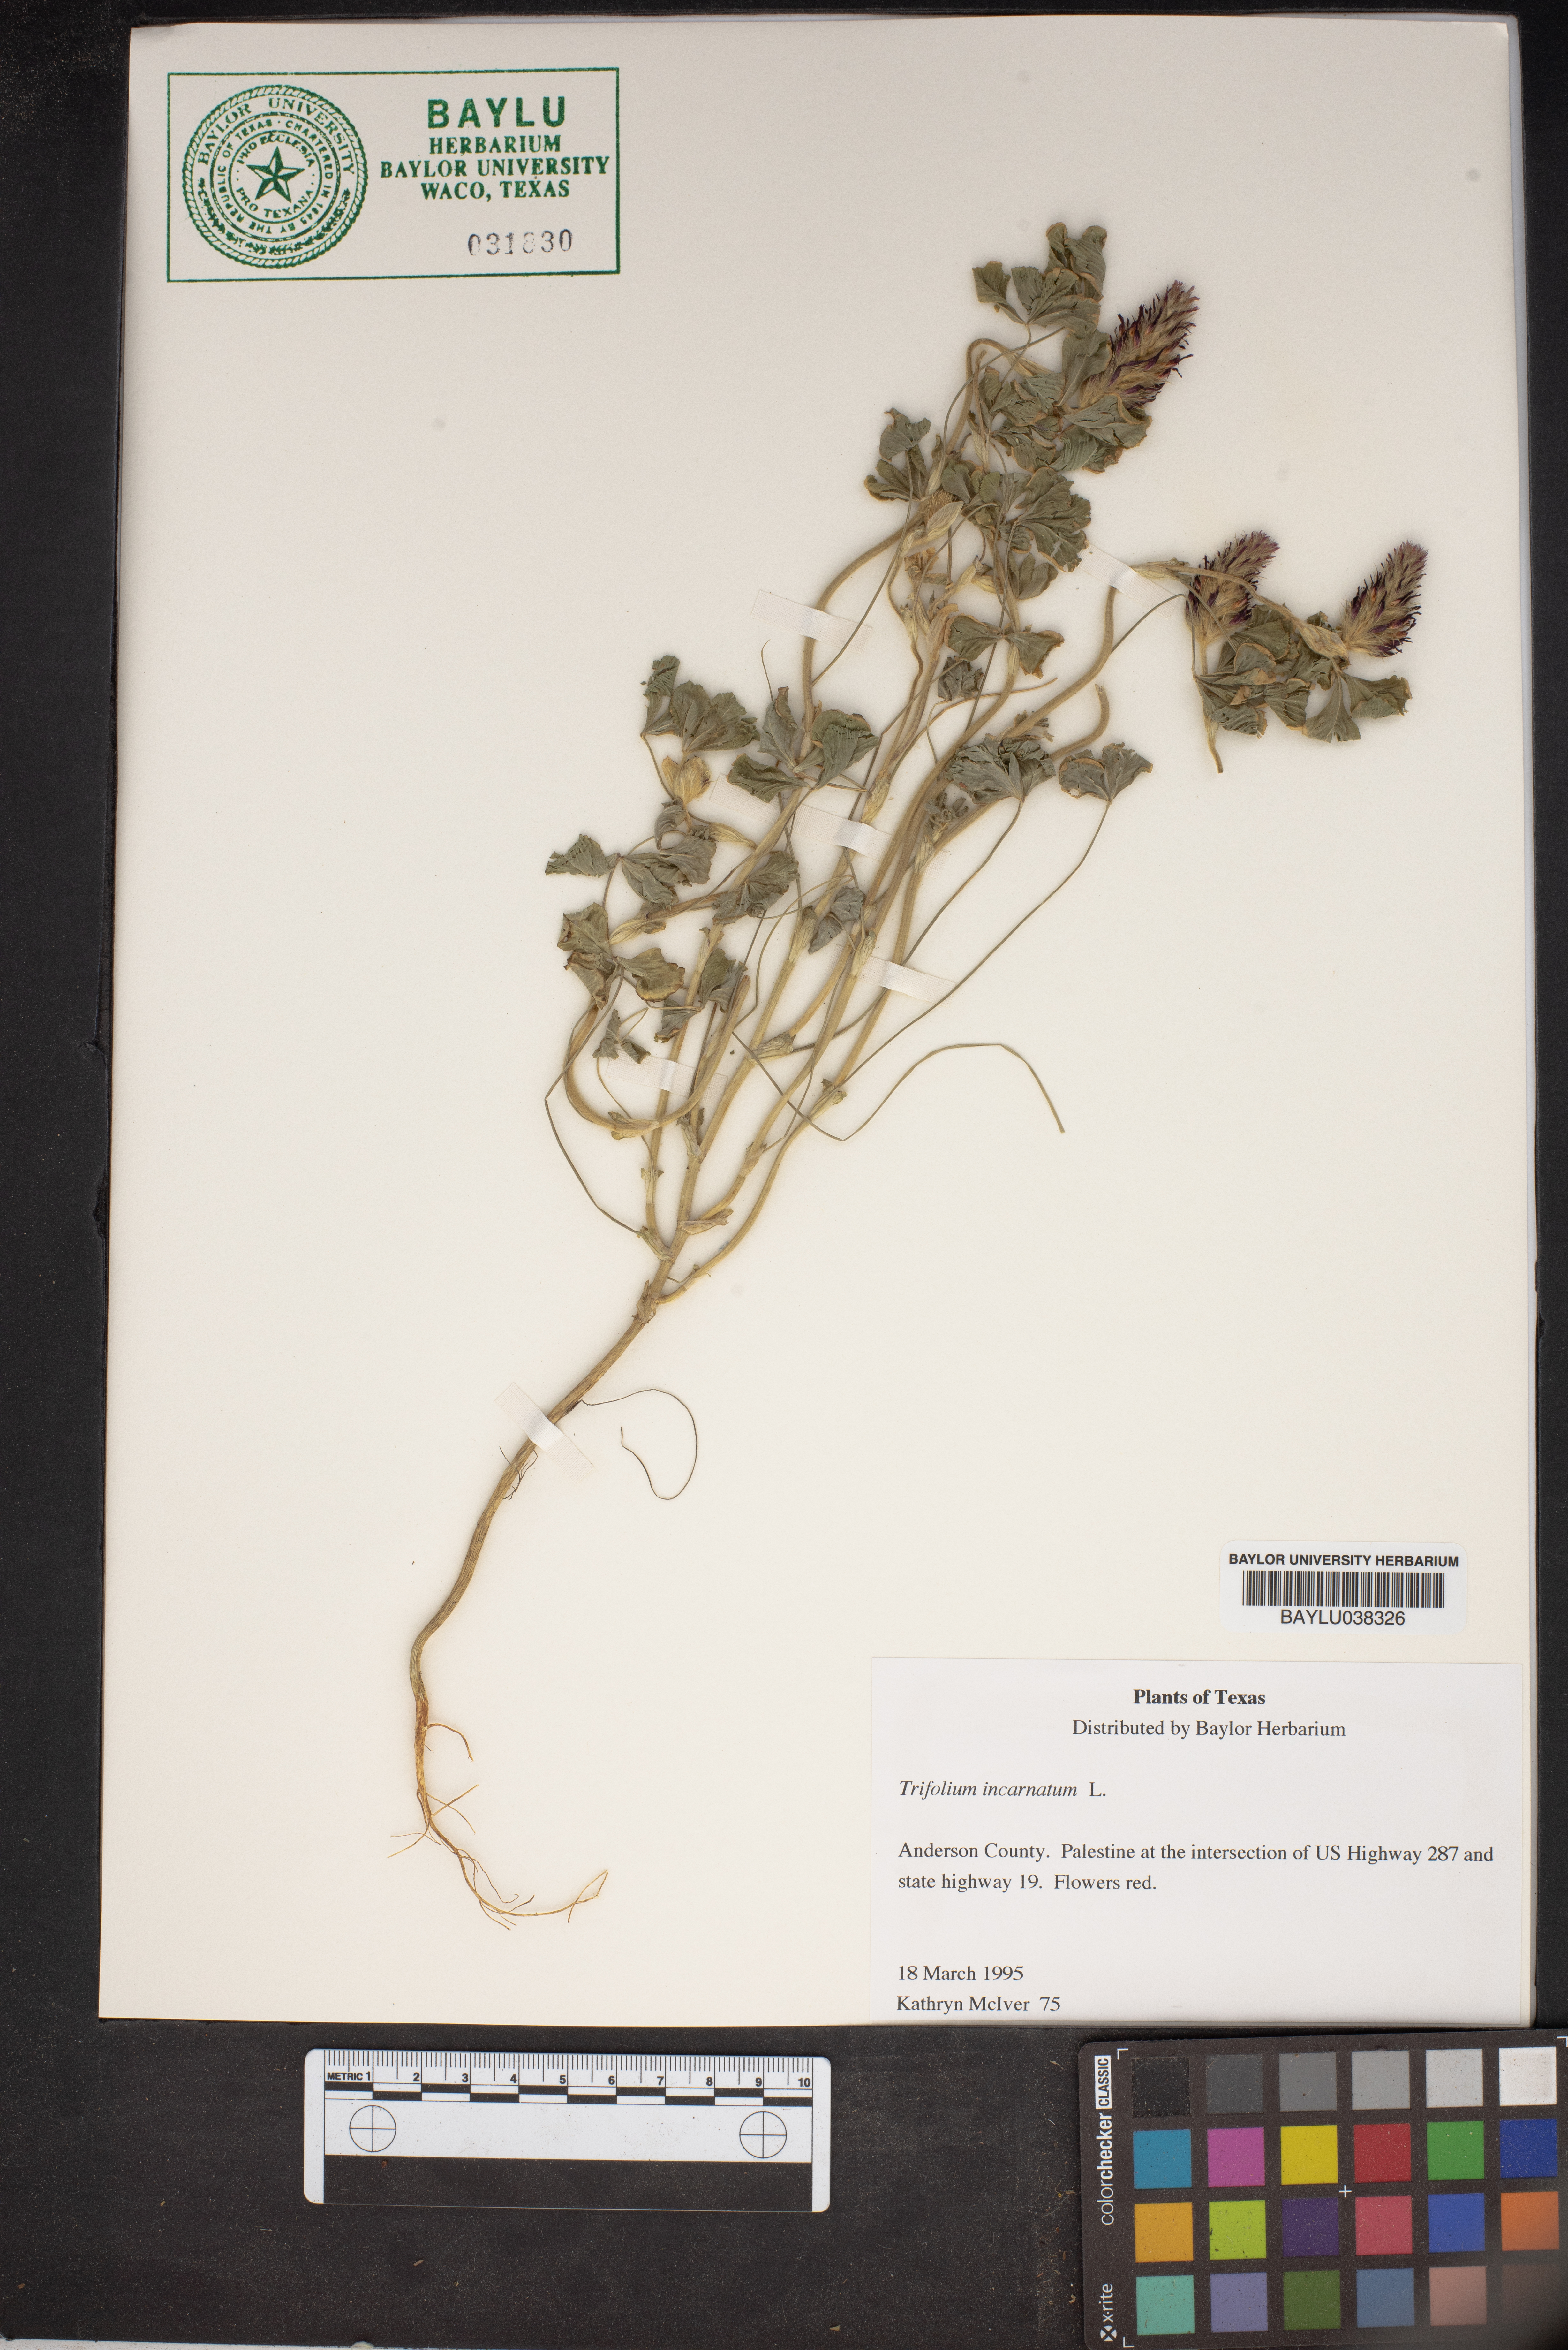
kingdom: Plantae
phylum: Tracheophyta
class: Magnoliopsida
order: Fabales
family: Fabaceae
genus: Trifolium
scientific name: Trifolium incarnatum
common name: Crimson clover
